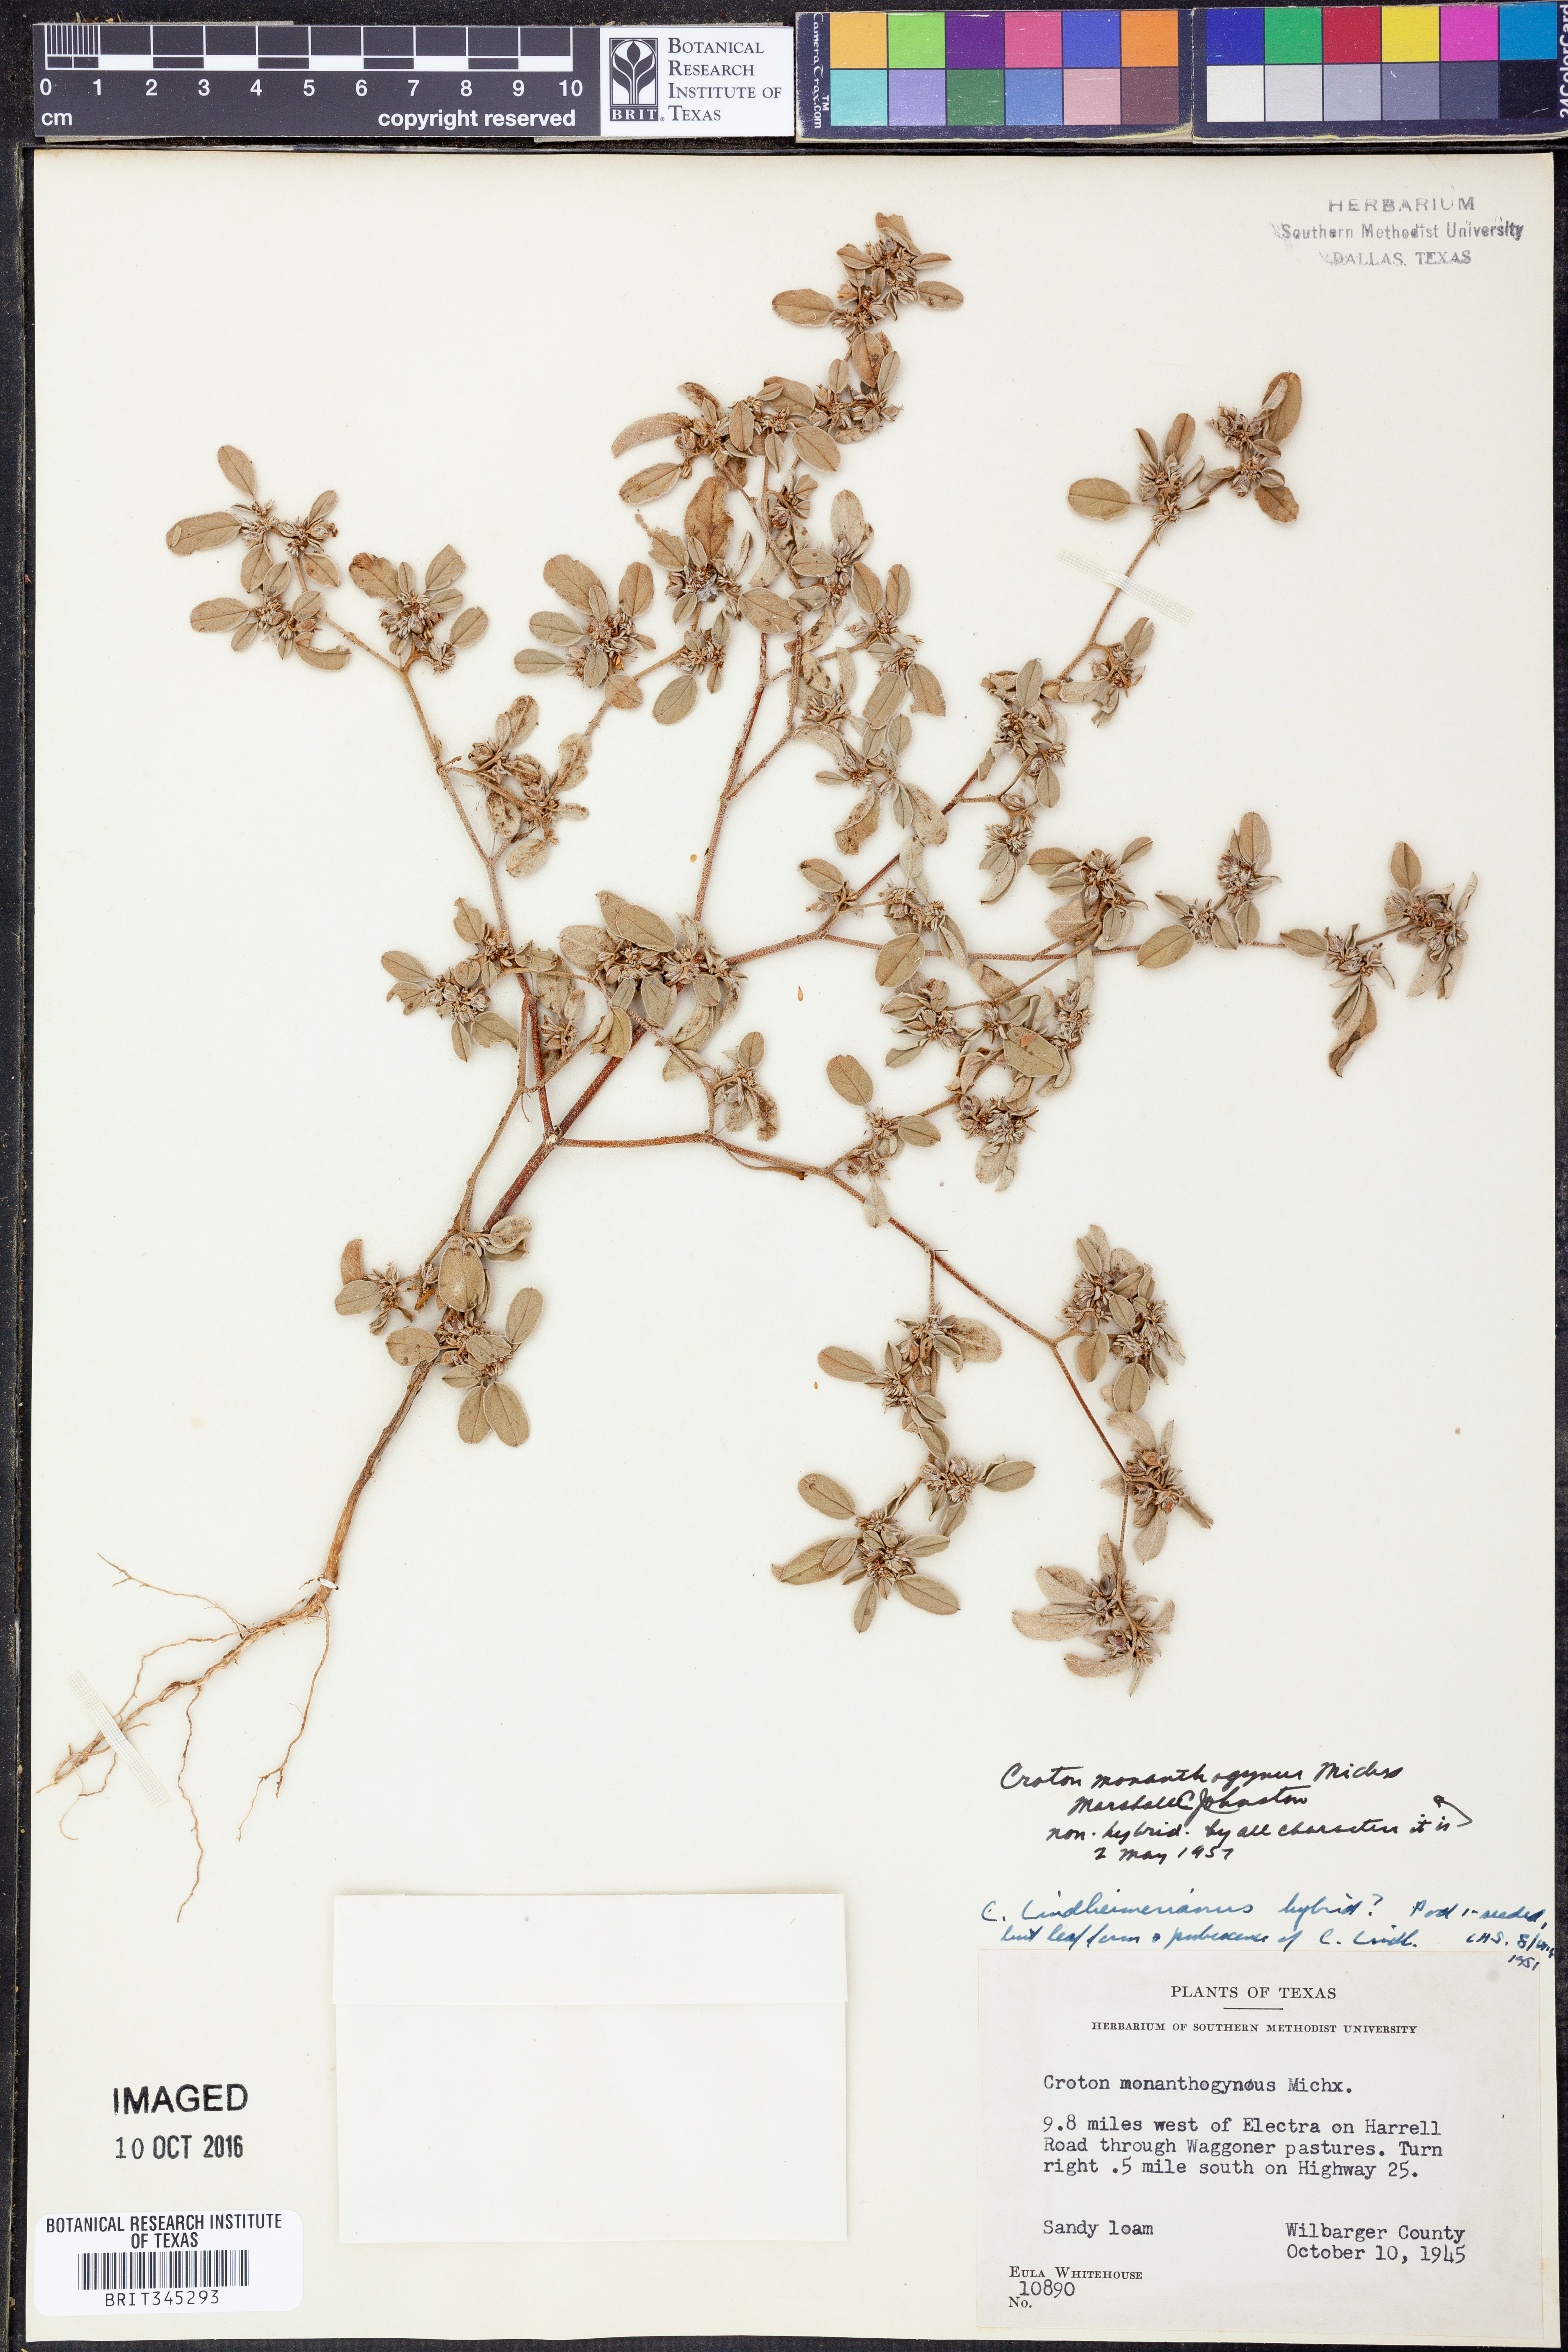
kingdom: Plantae
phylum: Tracheophyta
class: Magnoliopsida
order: Malpighiales
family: Euphorbiaceae
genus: Croton
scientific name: Croton monanthogynus
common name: One-seed croton
